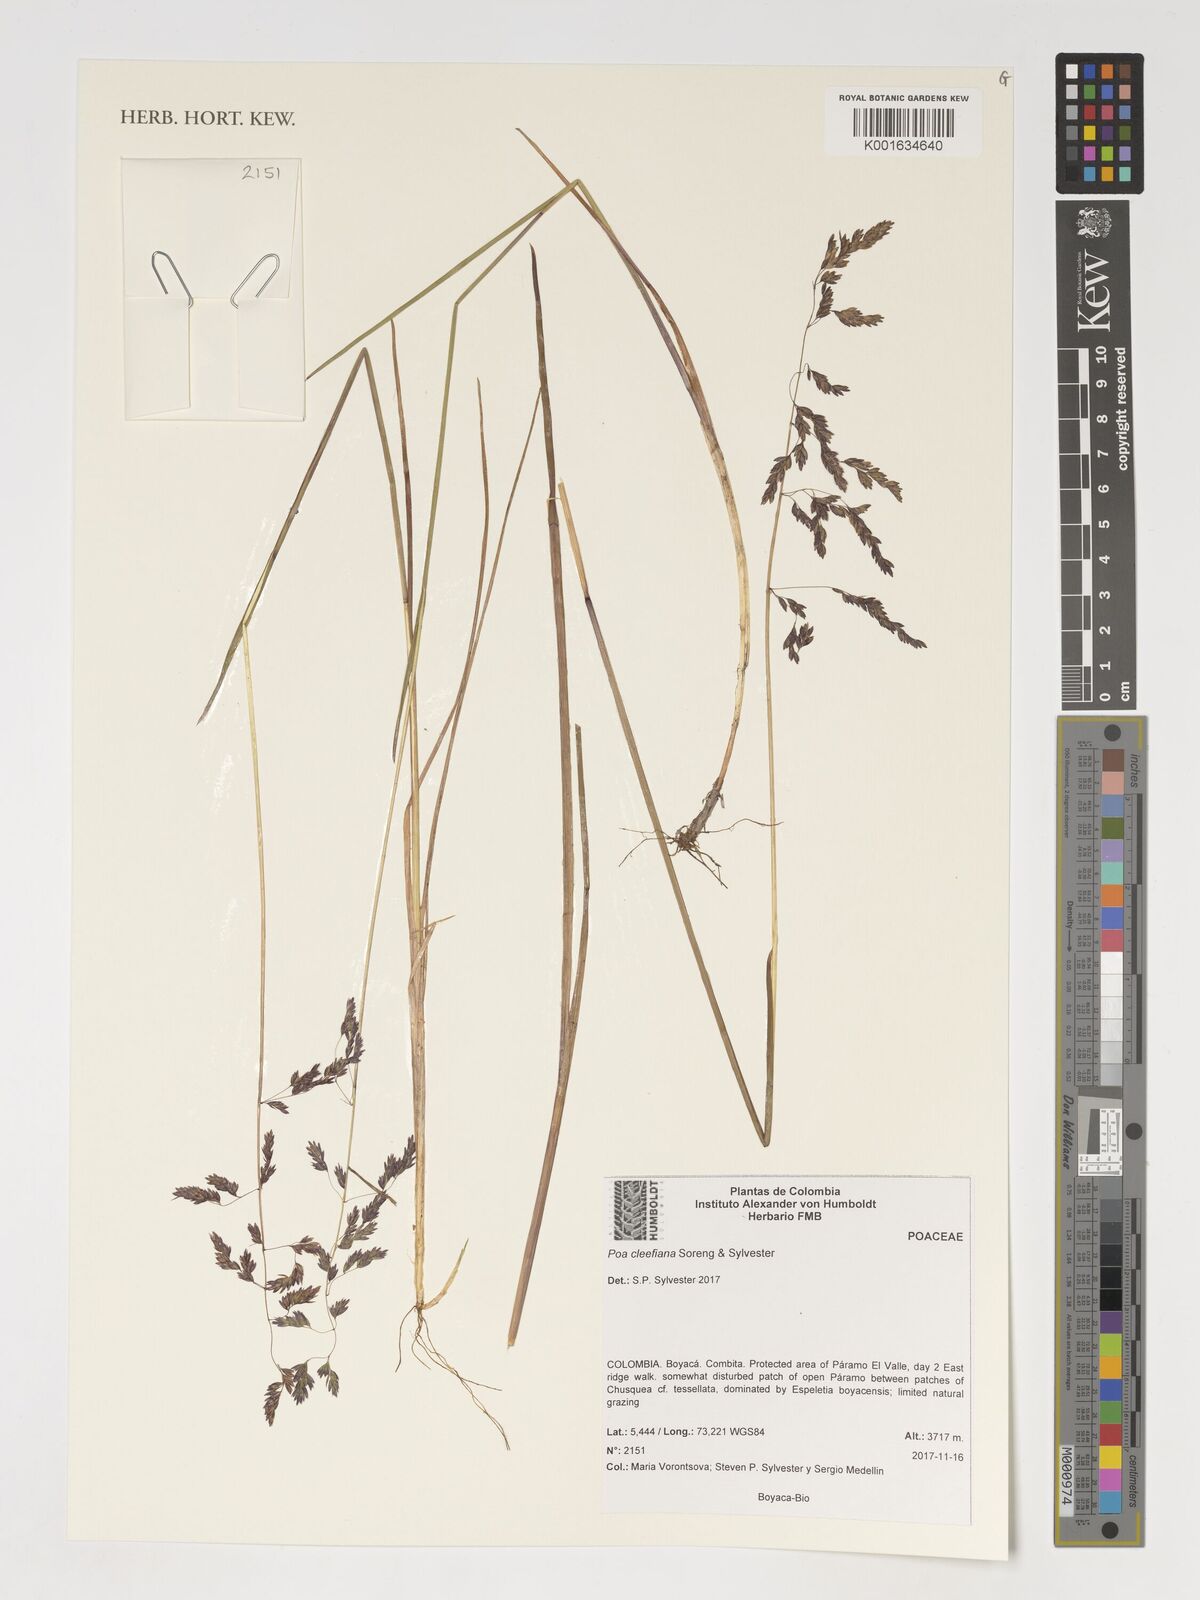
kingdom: Plantae
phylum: Tracheophyta
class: Liliopsida
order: Poales
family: Poaceae
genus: Poa
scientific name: Poa
